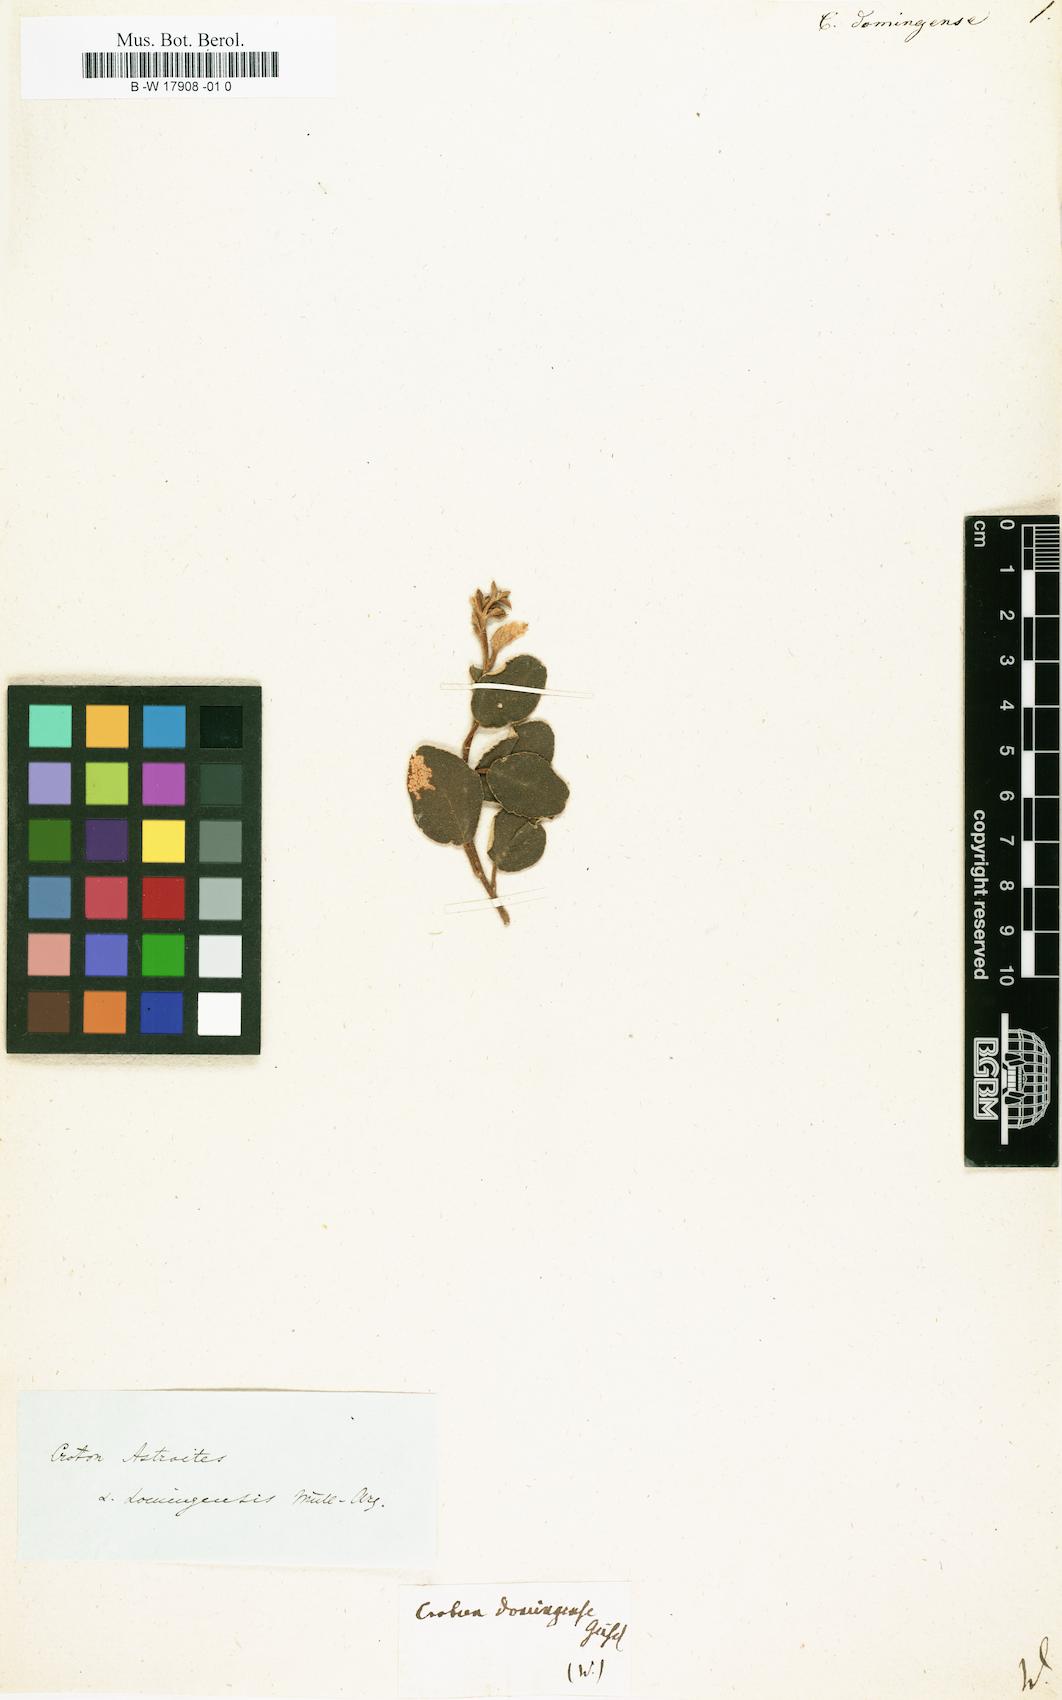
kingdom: Plantae
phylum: Tracheophyta
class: Magnoliopsida
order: Malpighiales
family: Euphorbiaceae
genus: Croton
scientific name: Croton
